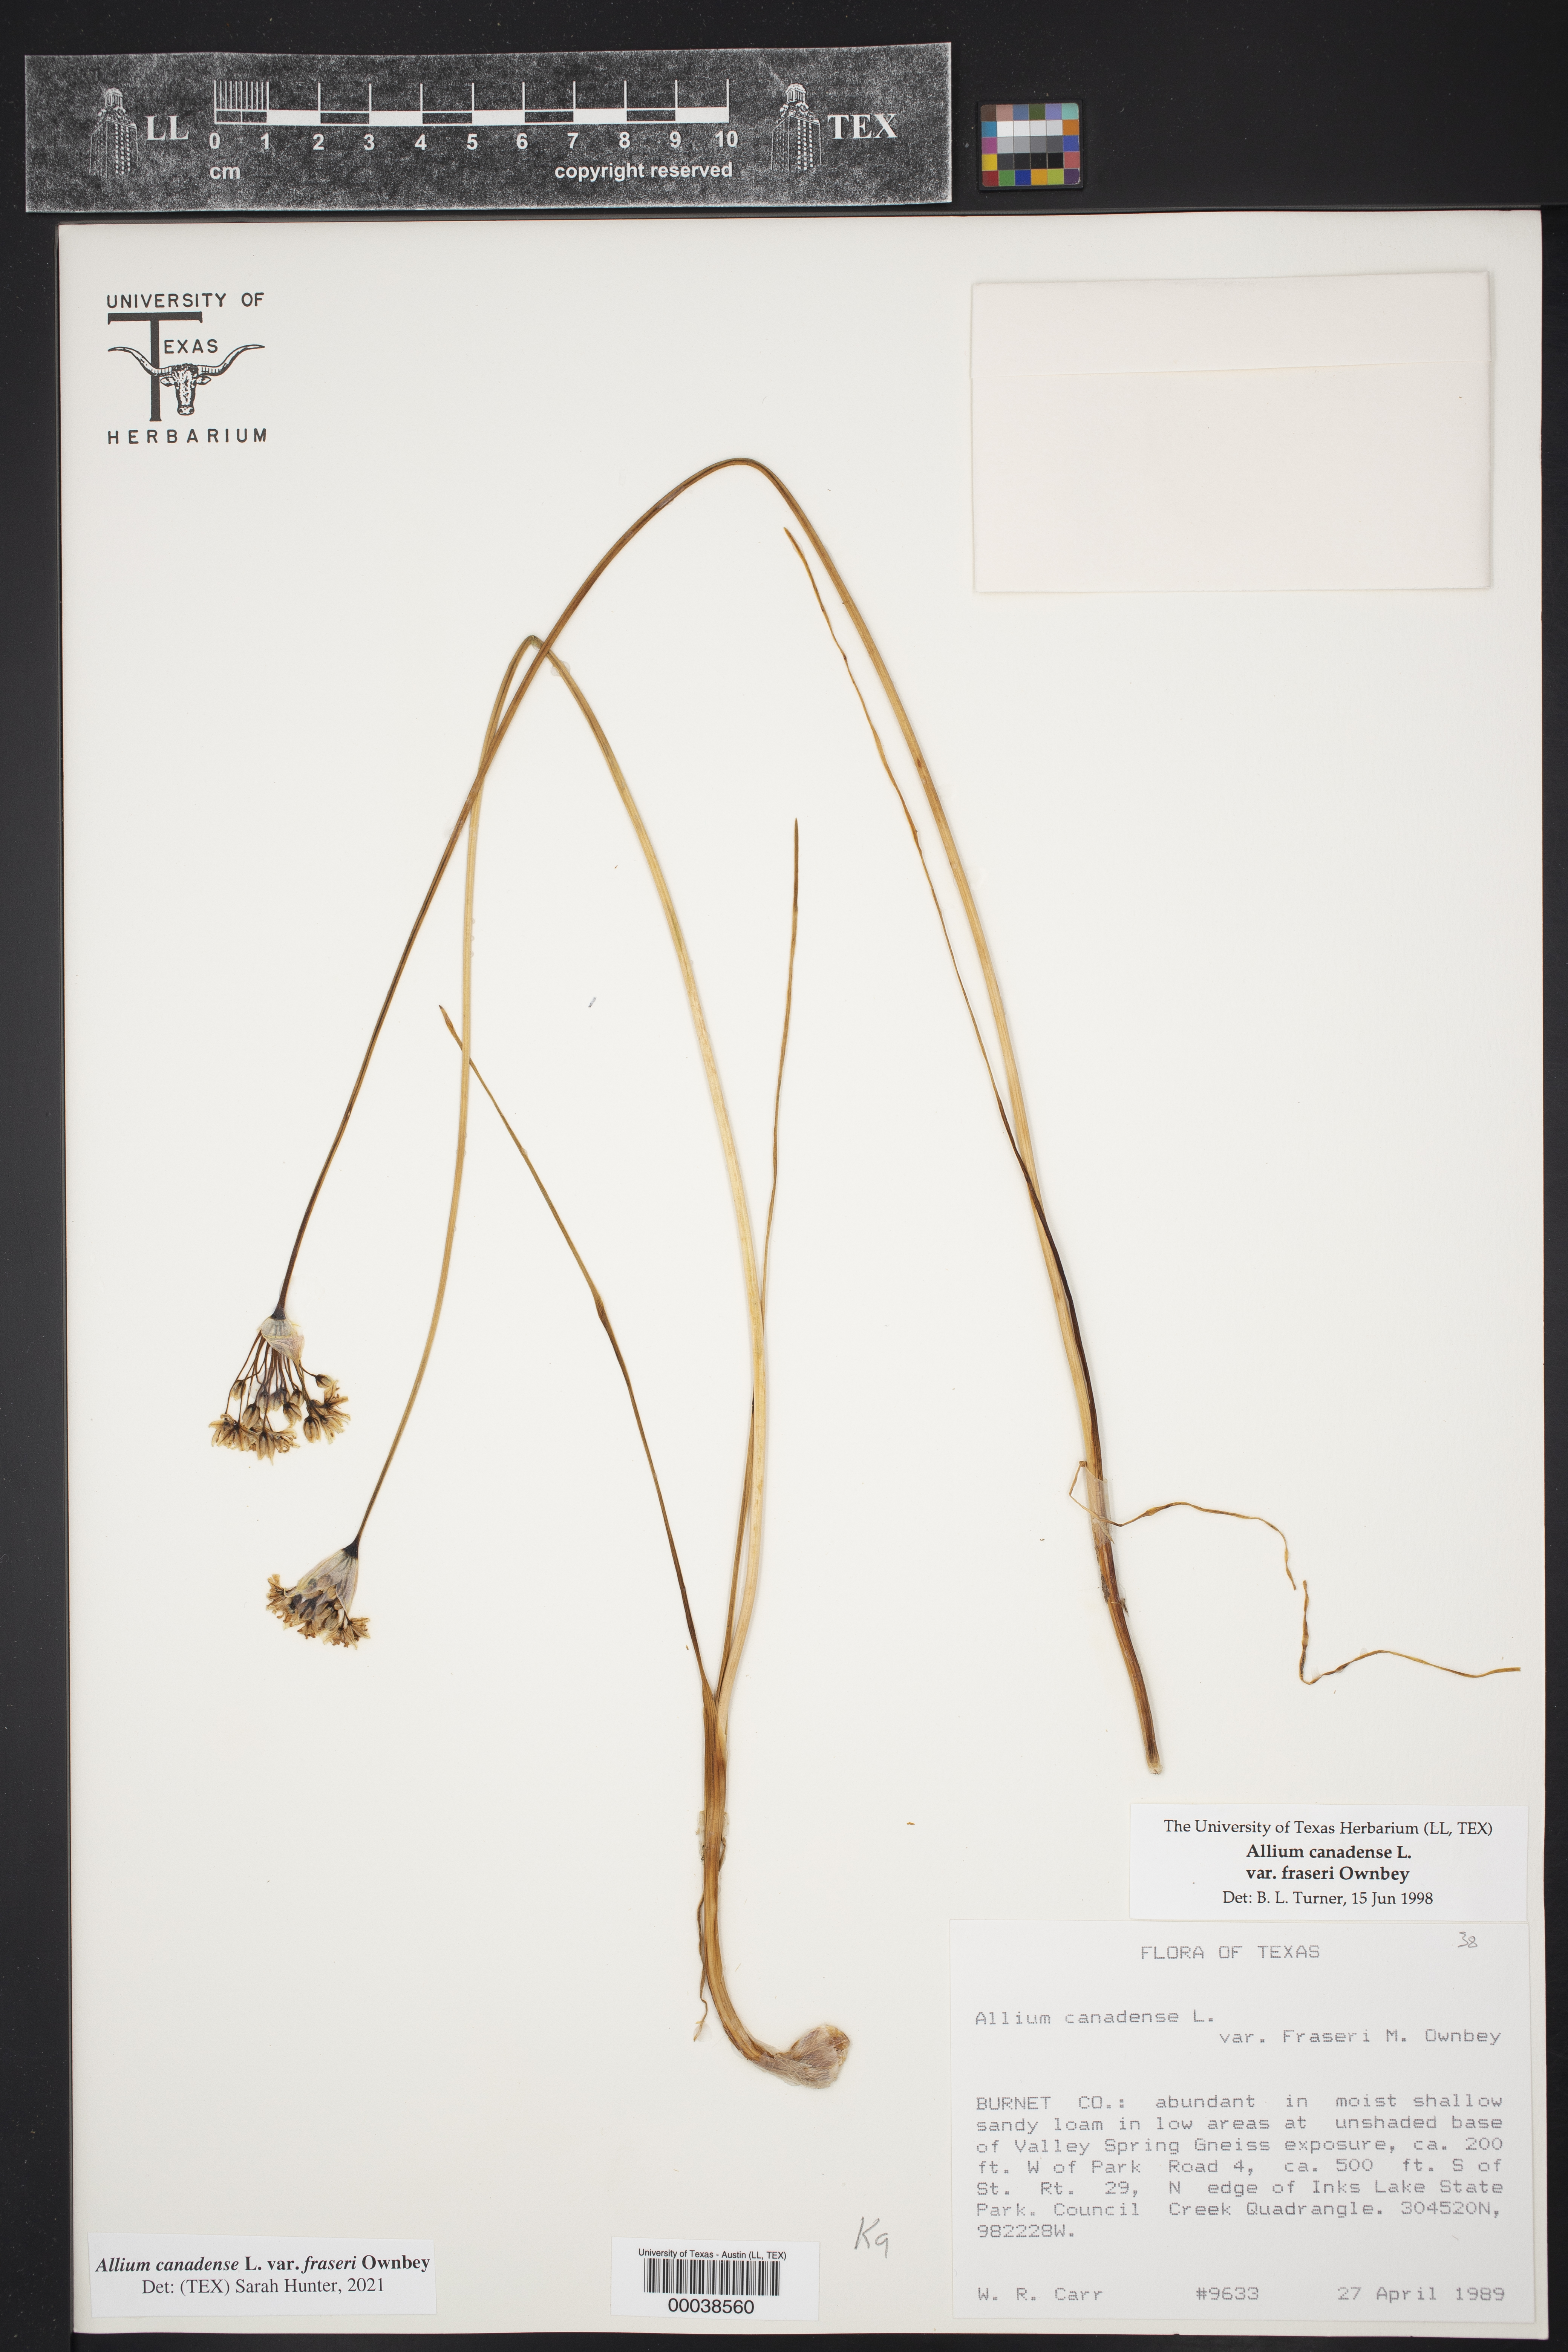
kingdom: Plantae
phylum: Tracheophyta
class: Liliopsida
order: Asparagales
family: Amaryllidaceae
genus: Allium
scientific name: Allium canadense
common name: Meadow garlic
